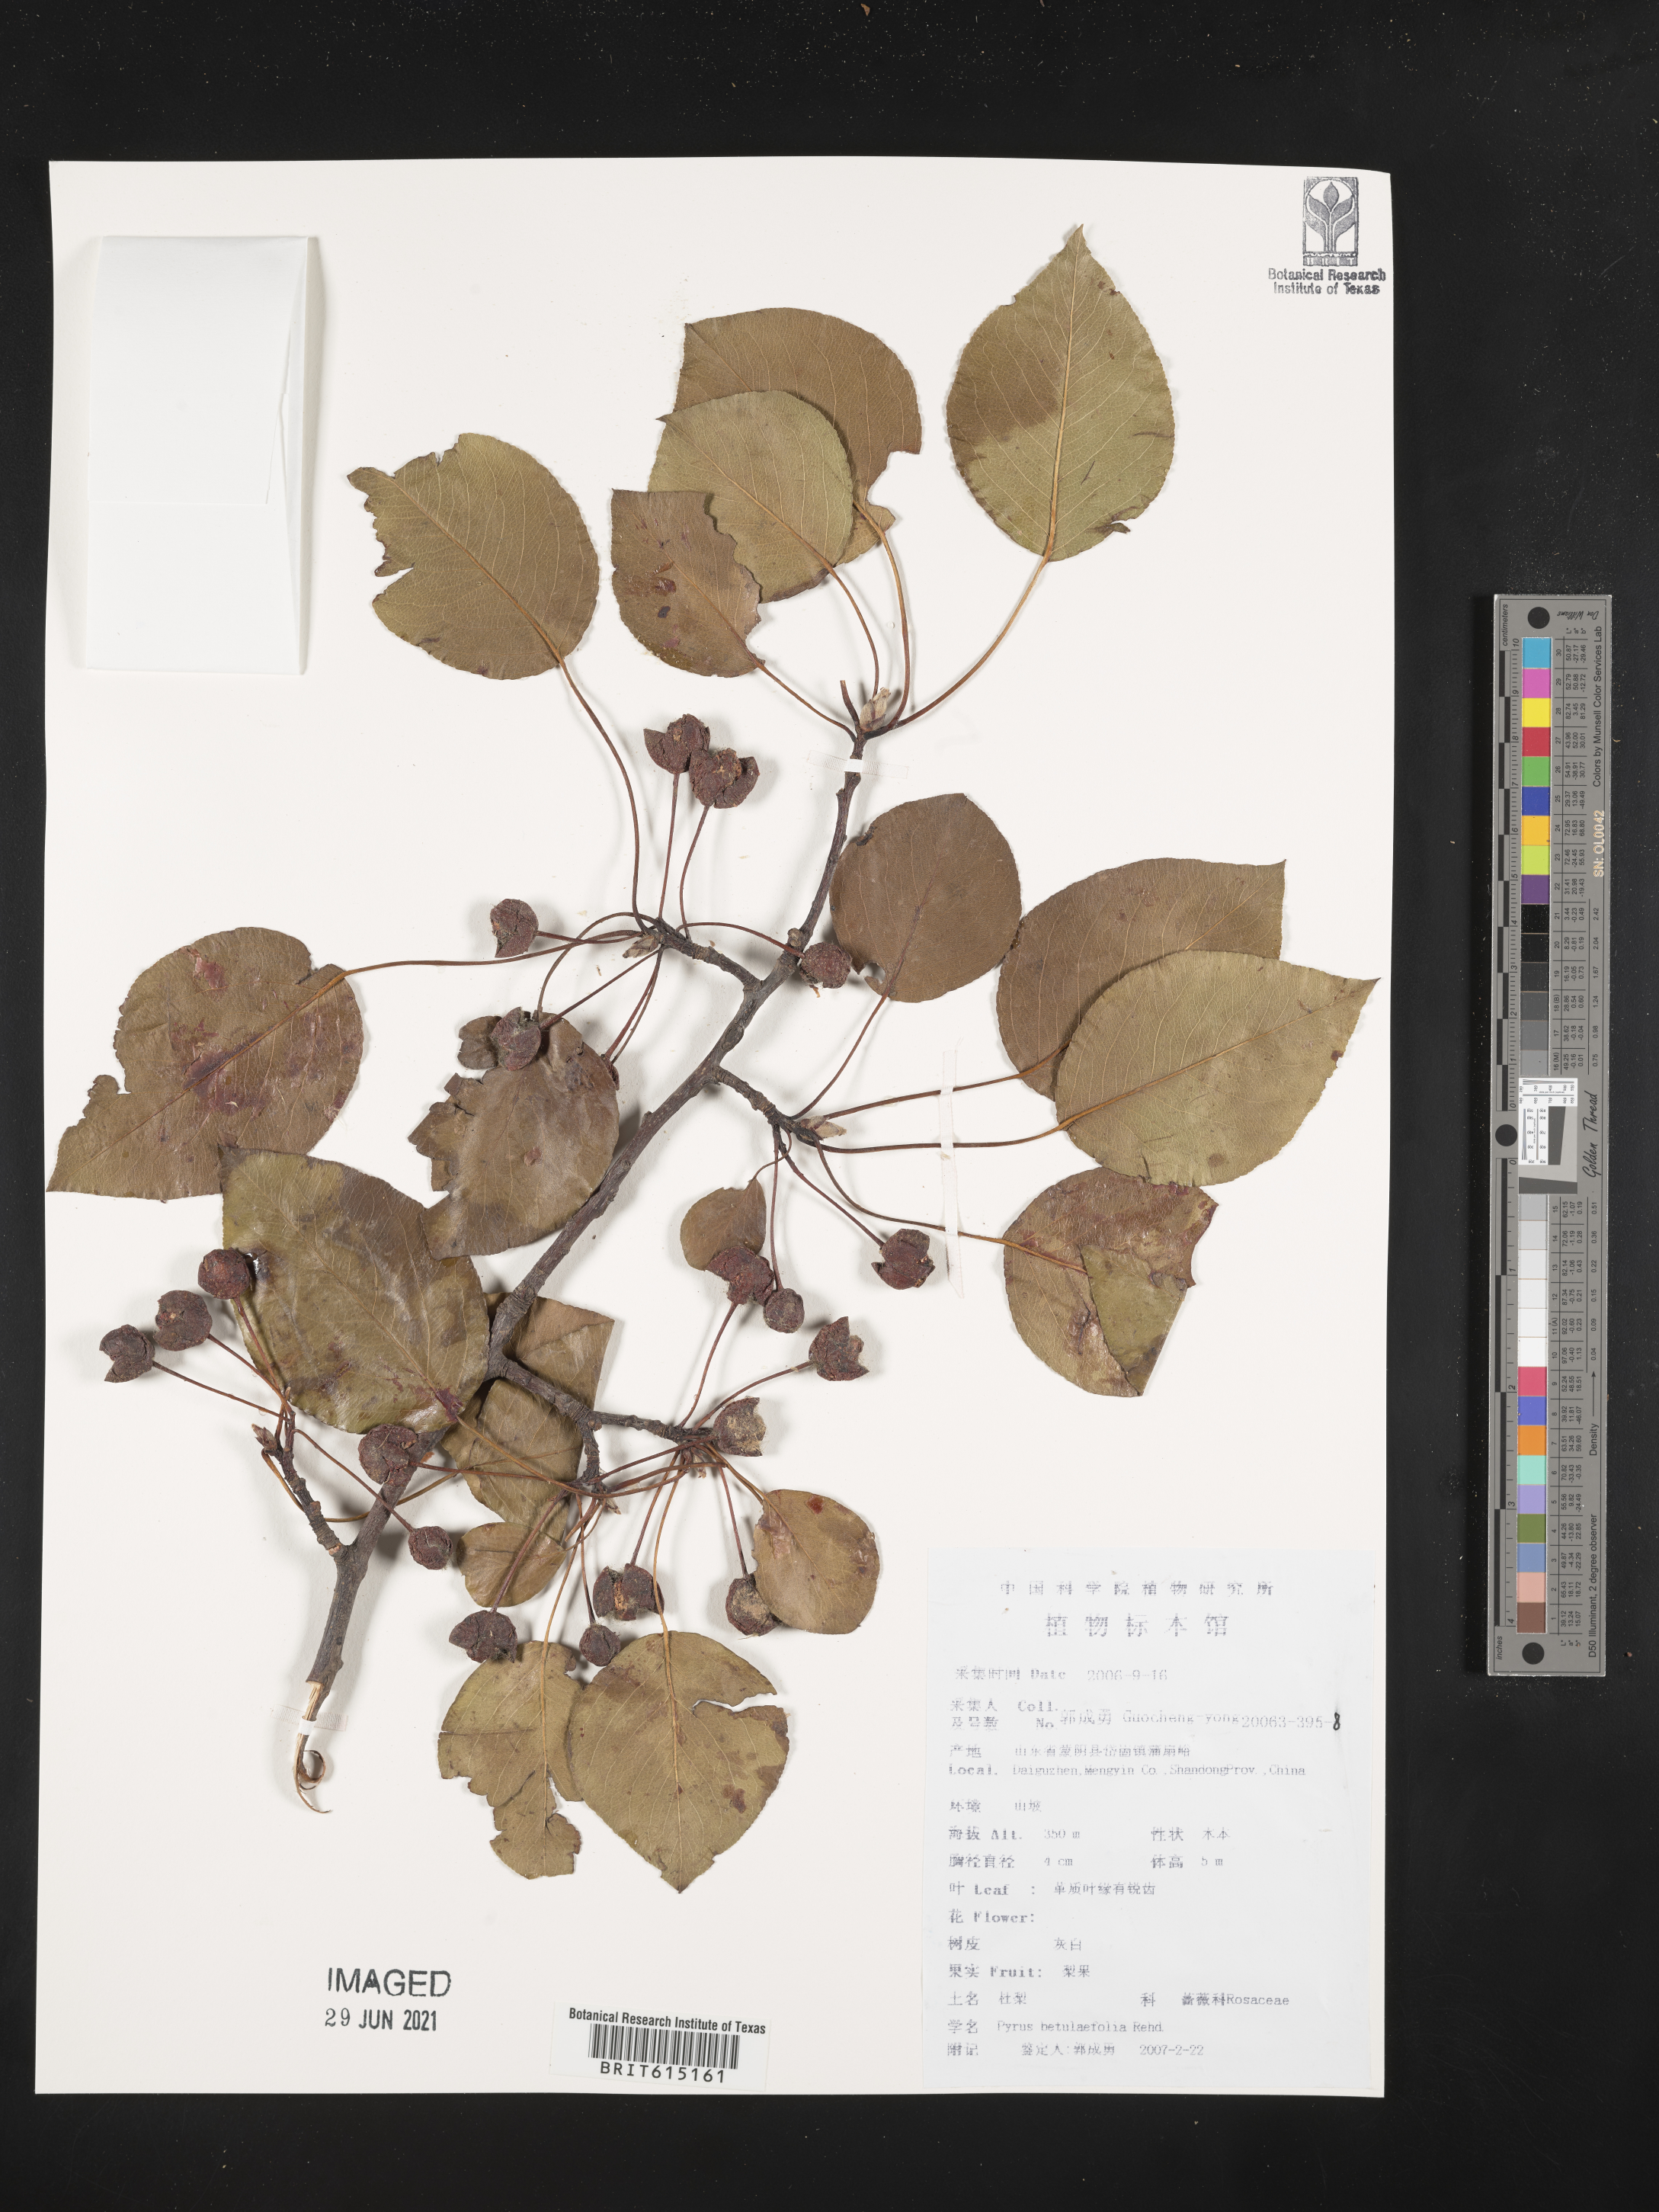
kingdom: Plantae
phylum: Tracheophyta
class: Magnoliopsida
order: Rosales
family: Rosaceae
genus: Pyrus
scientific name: Pyrus betulifolia
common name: Birch-leaf pear
